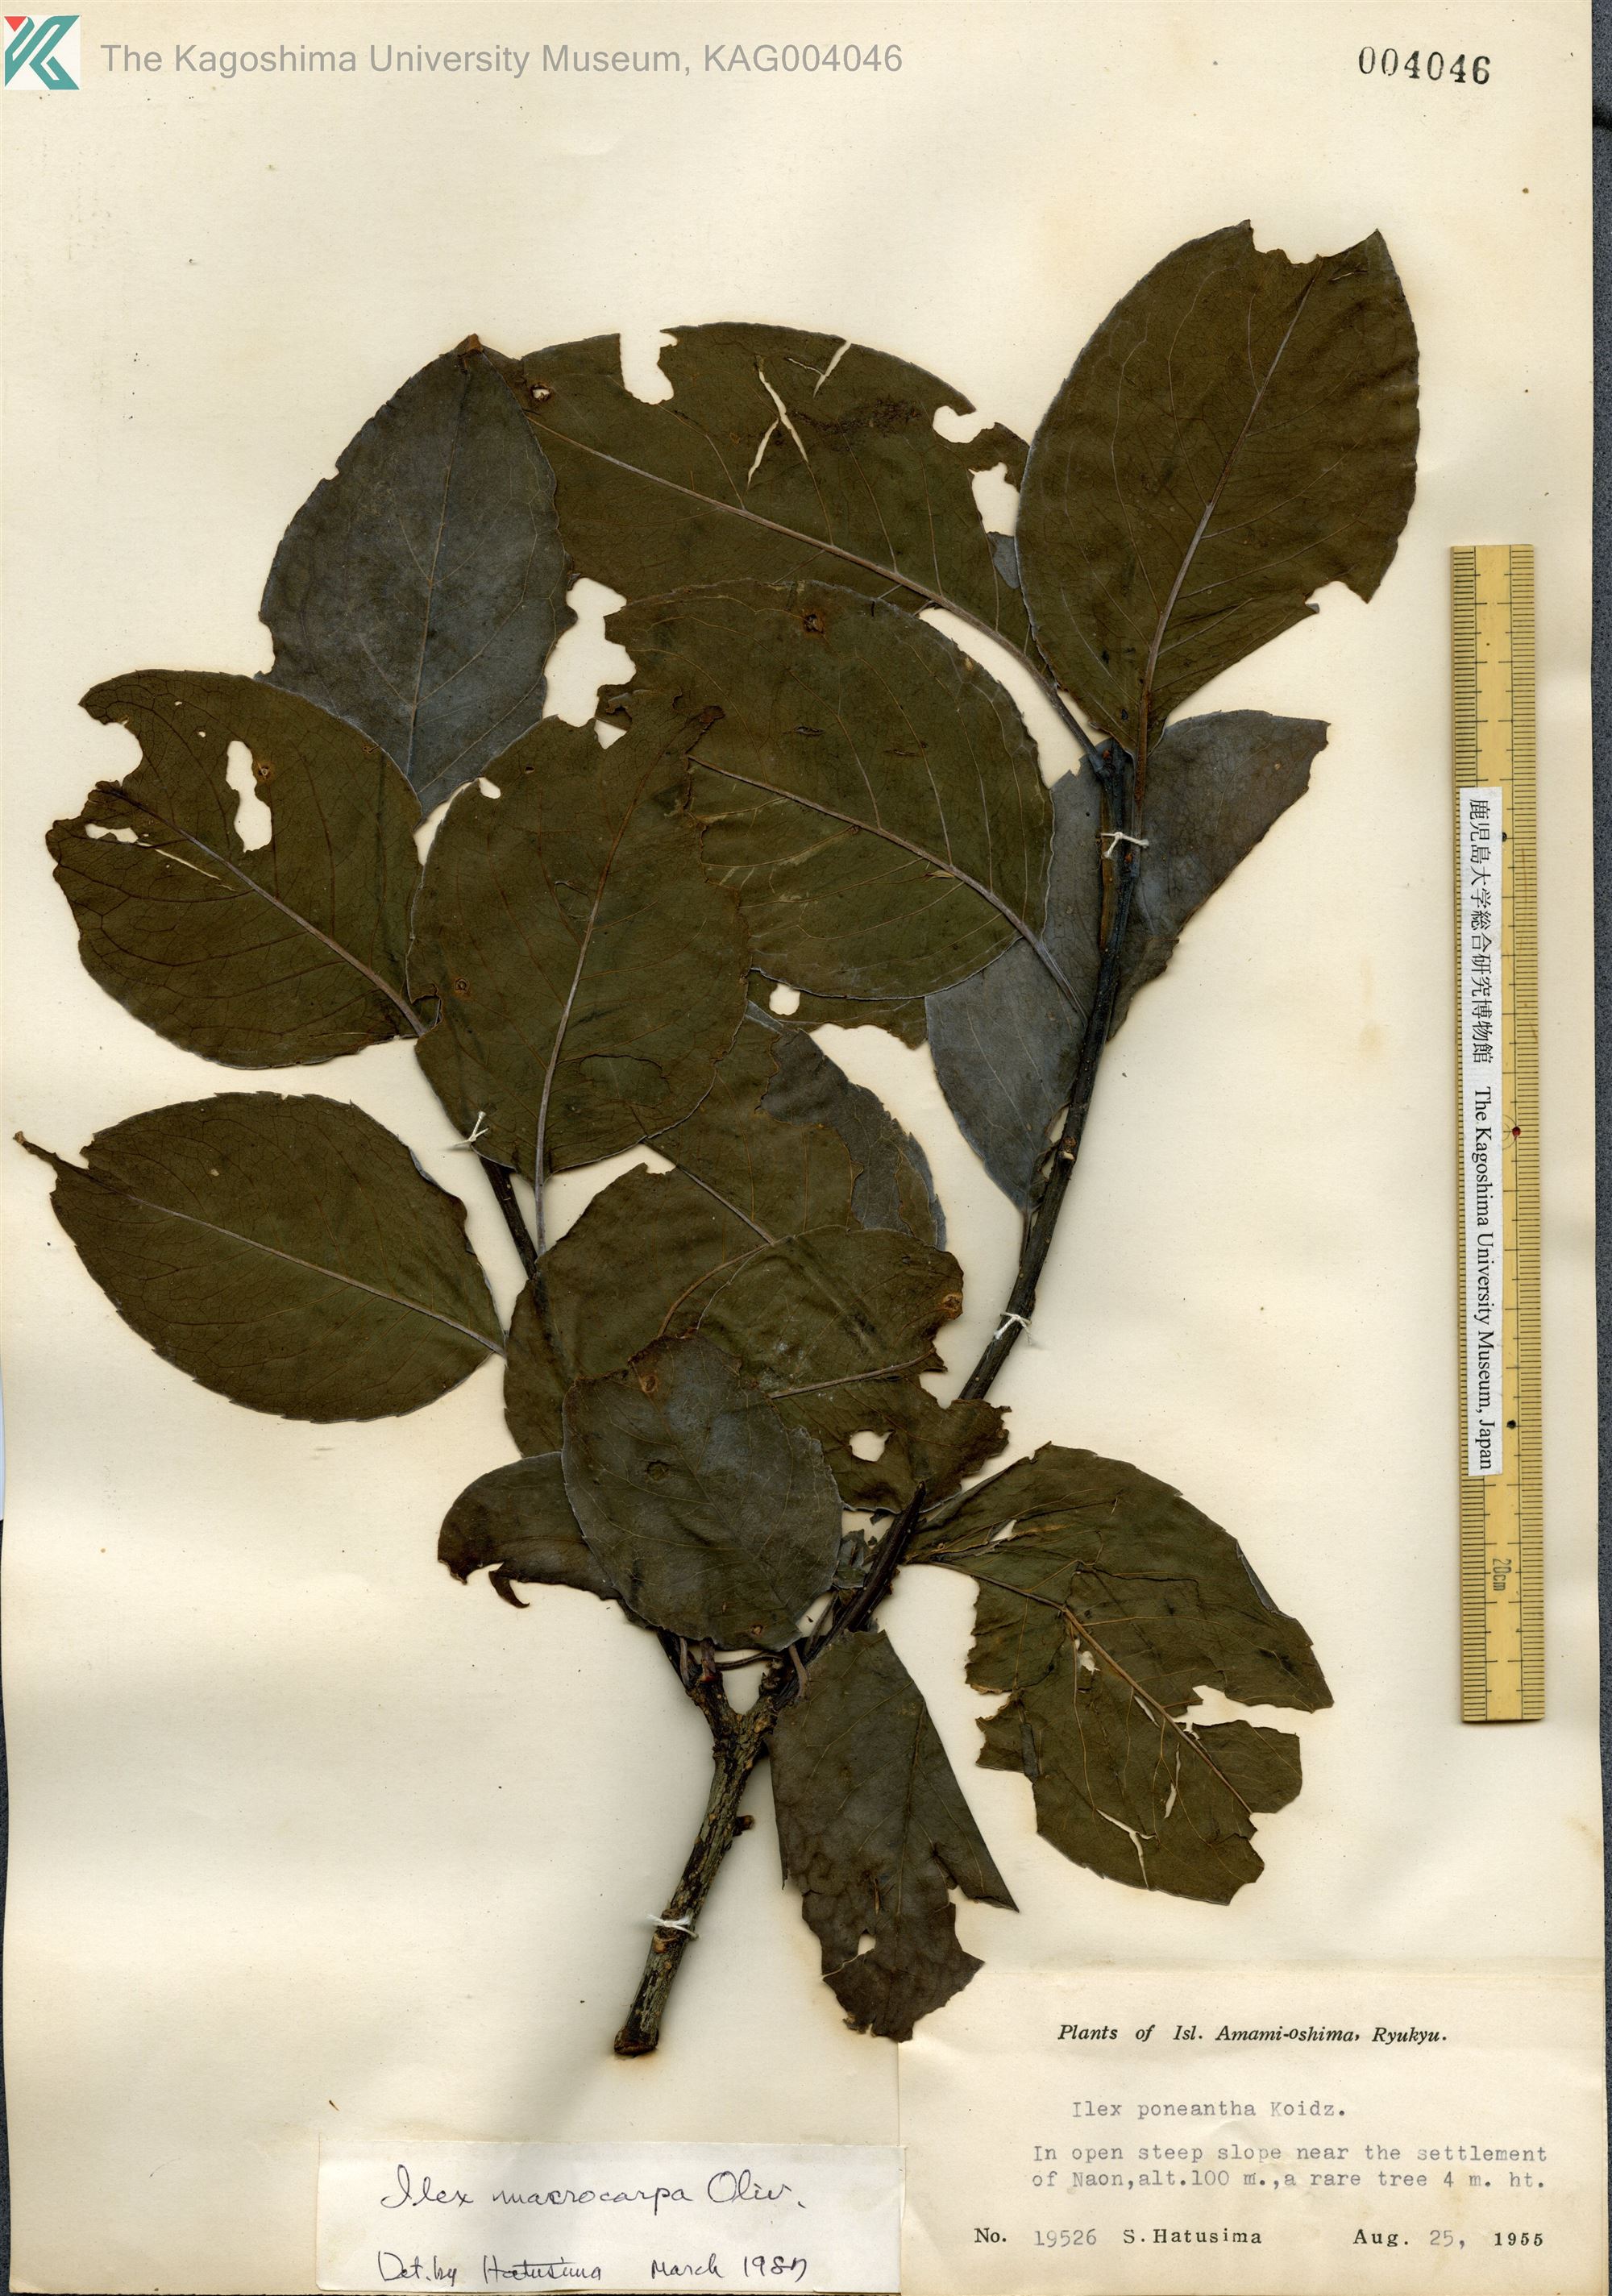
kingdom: Plantae
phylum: Tracheophyta
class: Magnoliopsida
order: Aquifoliales
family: Aquifoliaceae
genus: Ilex
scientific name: Ilex macrocarpa
